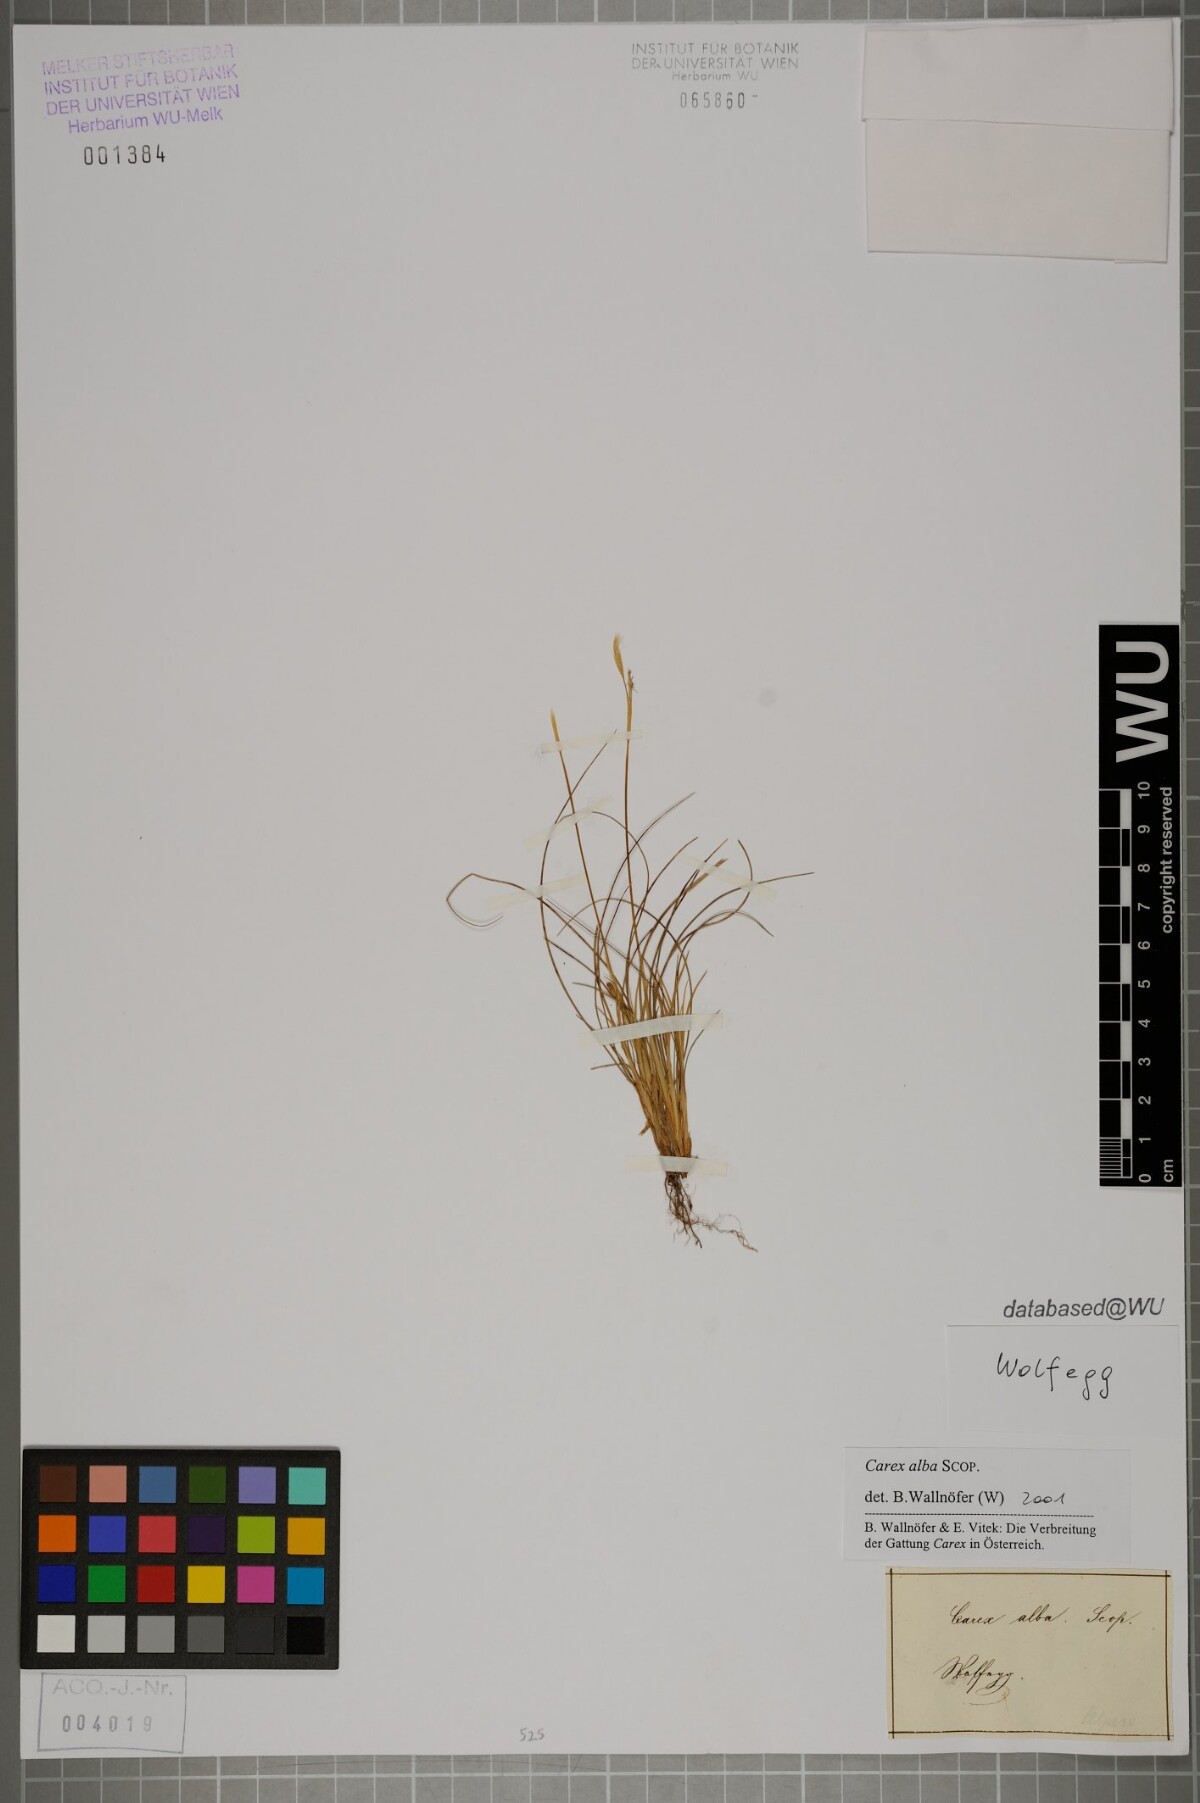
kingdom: Plantae
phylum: Tracheophyta
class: Liliopsida
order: Poales
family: Cyperaceae
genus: Carex
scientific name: Carex alba
